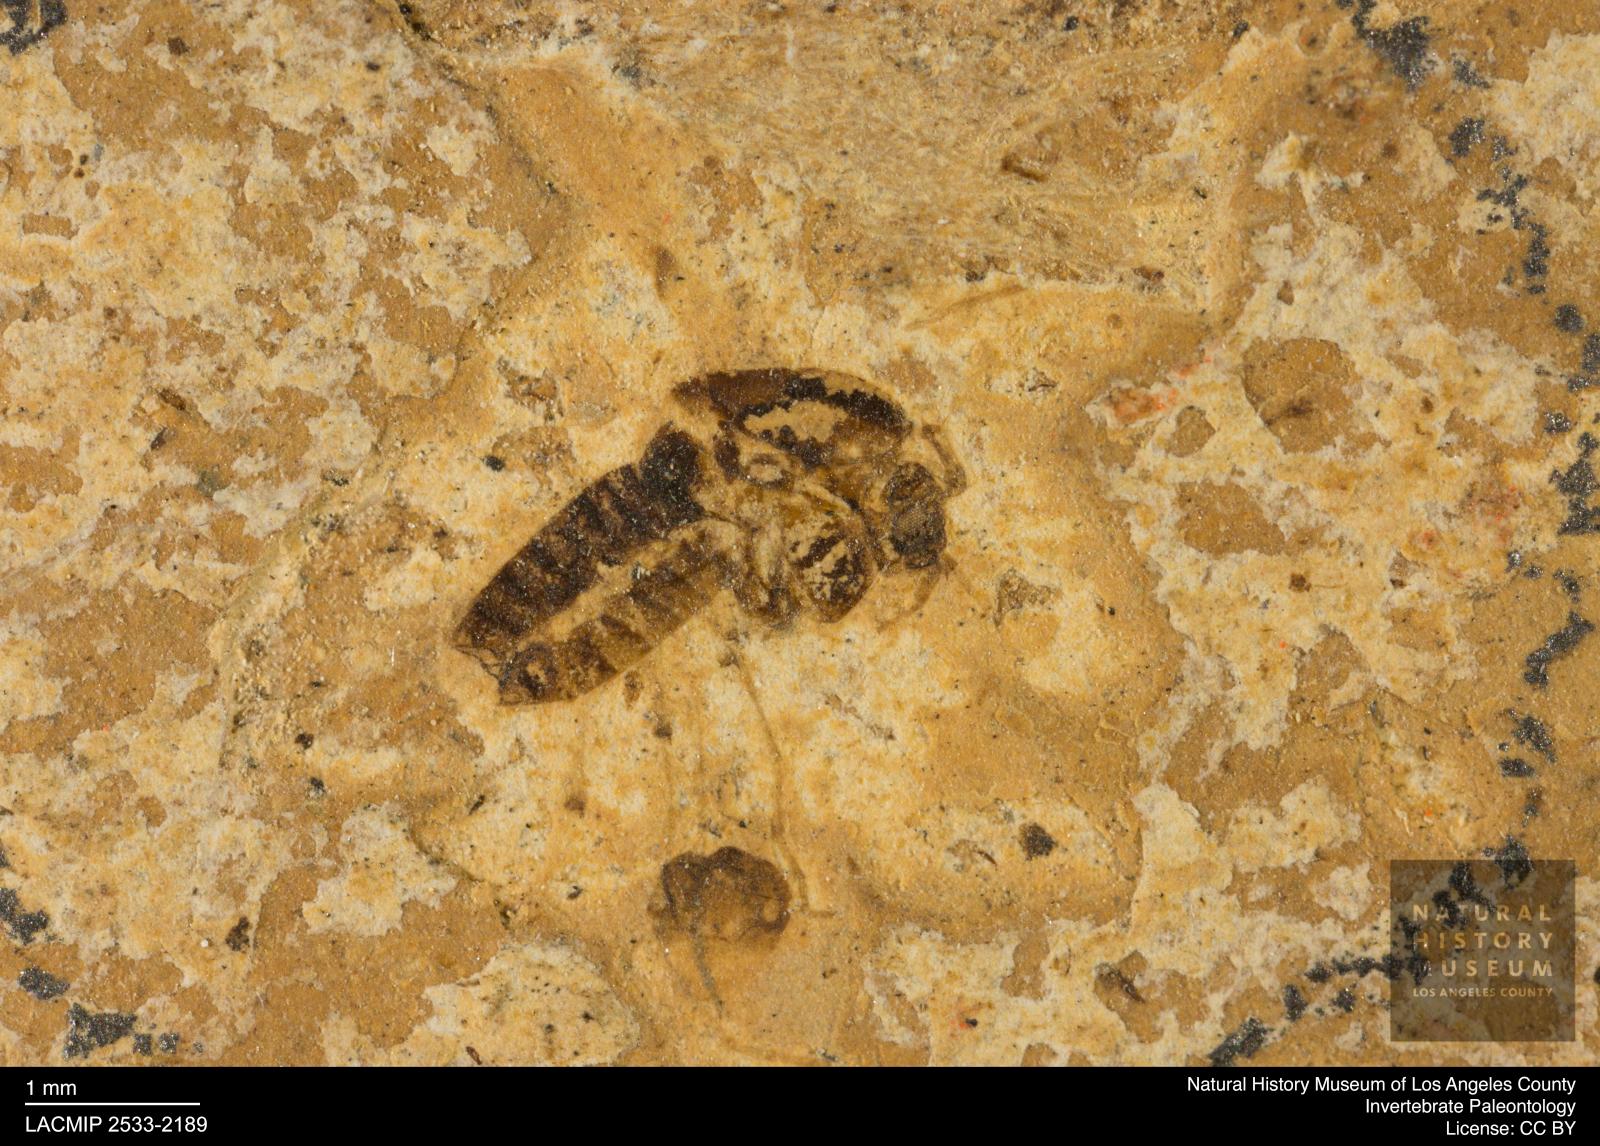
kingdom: Animalia
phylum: Arthropoda
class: Insecta
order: Diptera
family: Chironomidae
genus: Tanypus
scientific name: Tanypus
